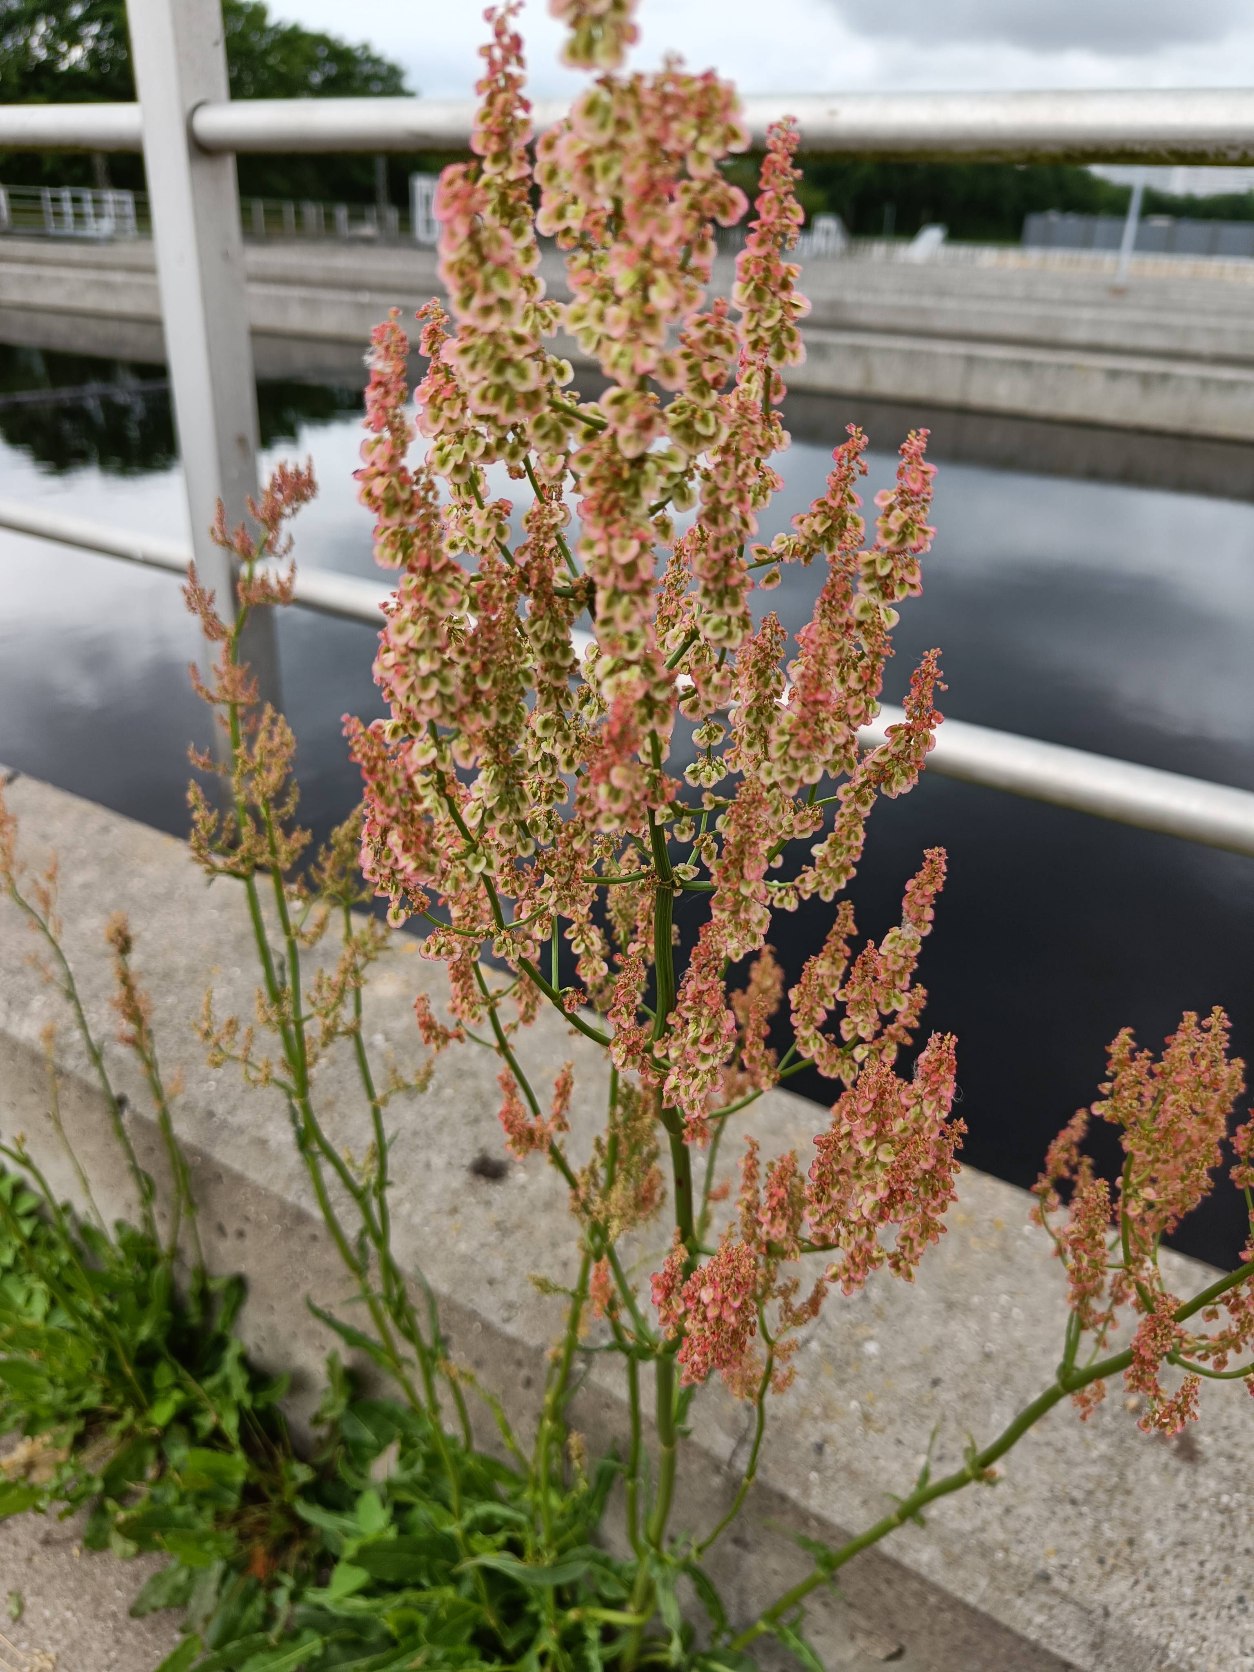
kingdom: Plantae
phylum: Tracheophyta
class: Magnoliopsida
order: Caryophyllales
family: Polygonaceae
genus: Rumex
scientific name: Rumex thyrsiflorus
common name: Dusk-syre
